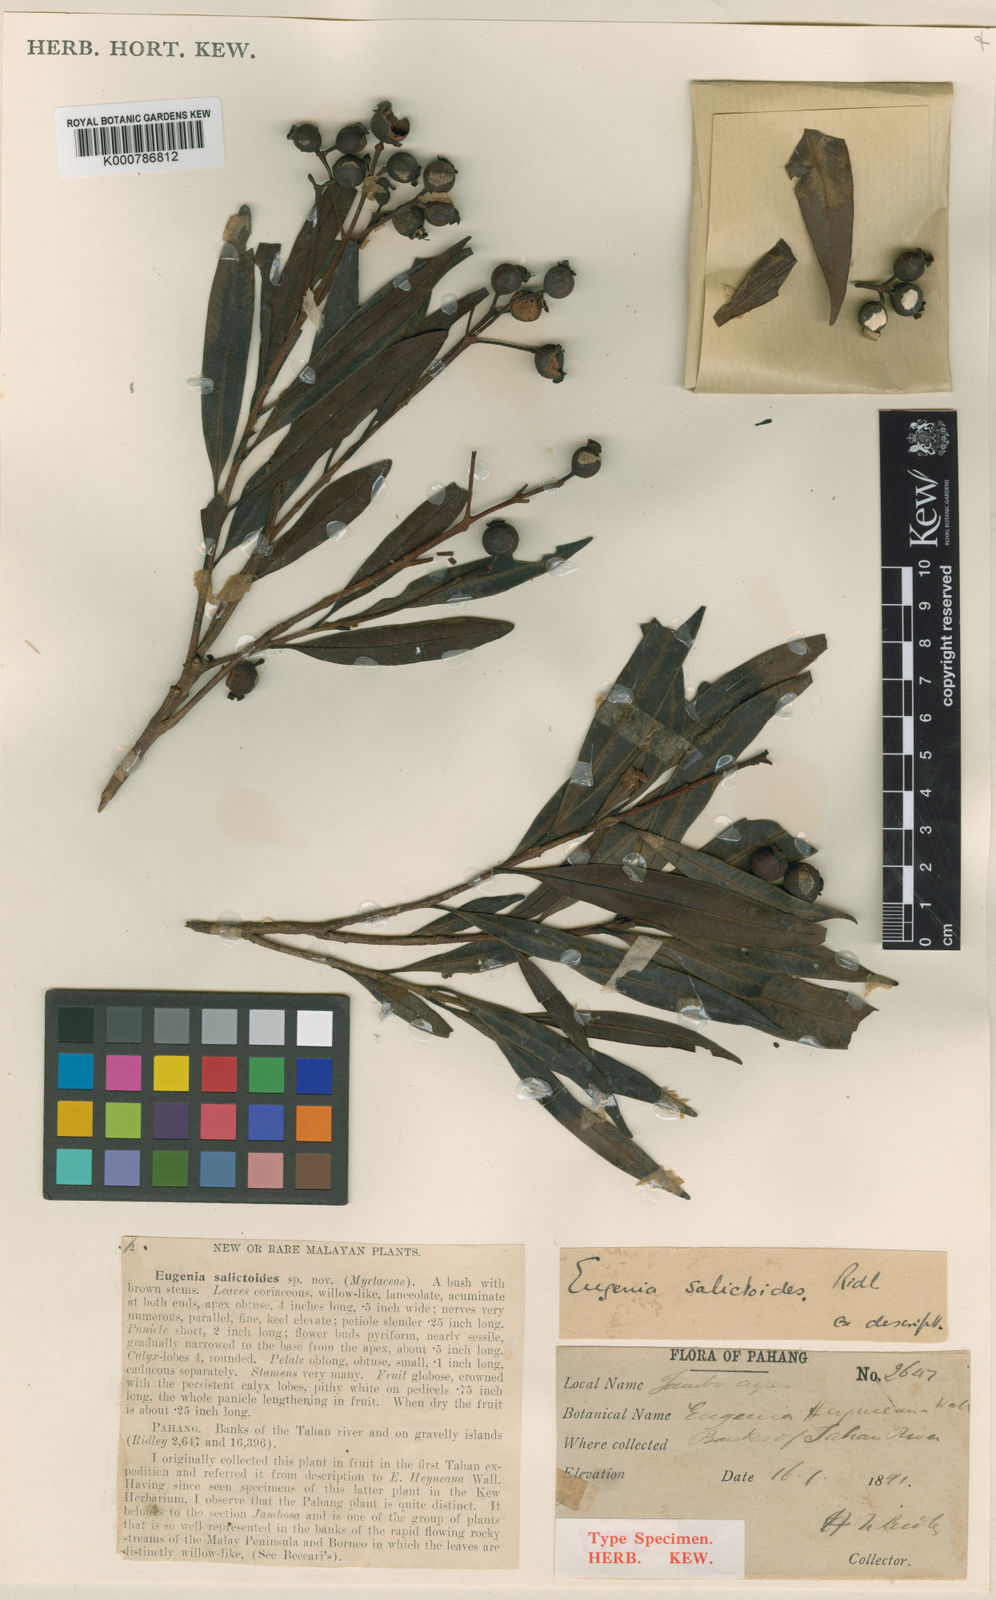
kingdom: Plantae
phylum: Tracheophyta
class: Magnoliopsida
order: Myrtales
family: Myrtaceae
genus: Syzygium
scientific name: Syzygium salictoides
